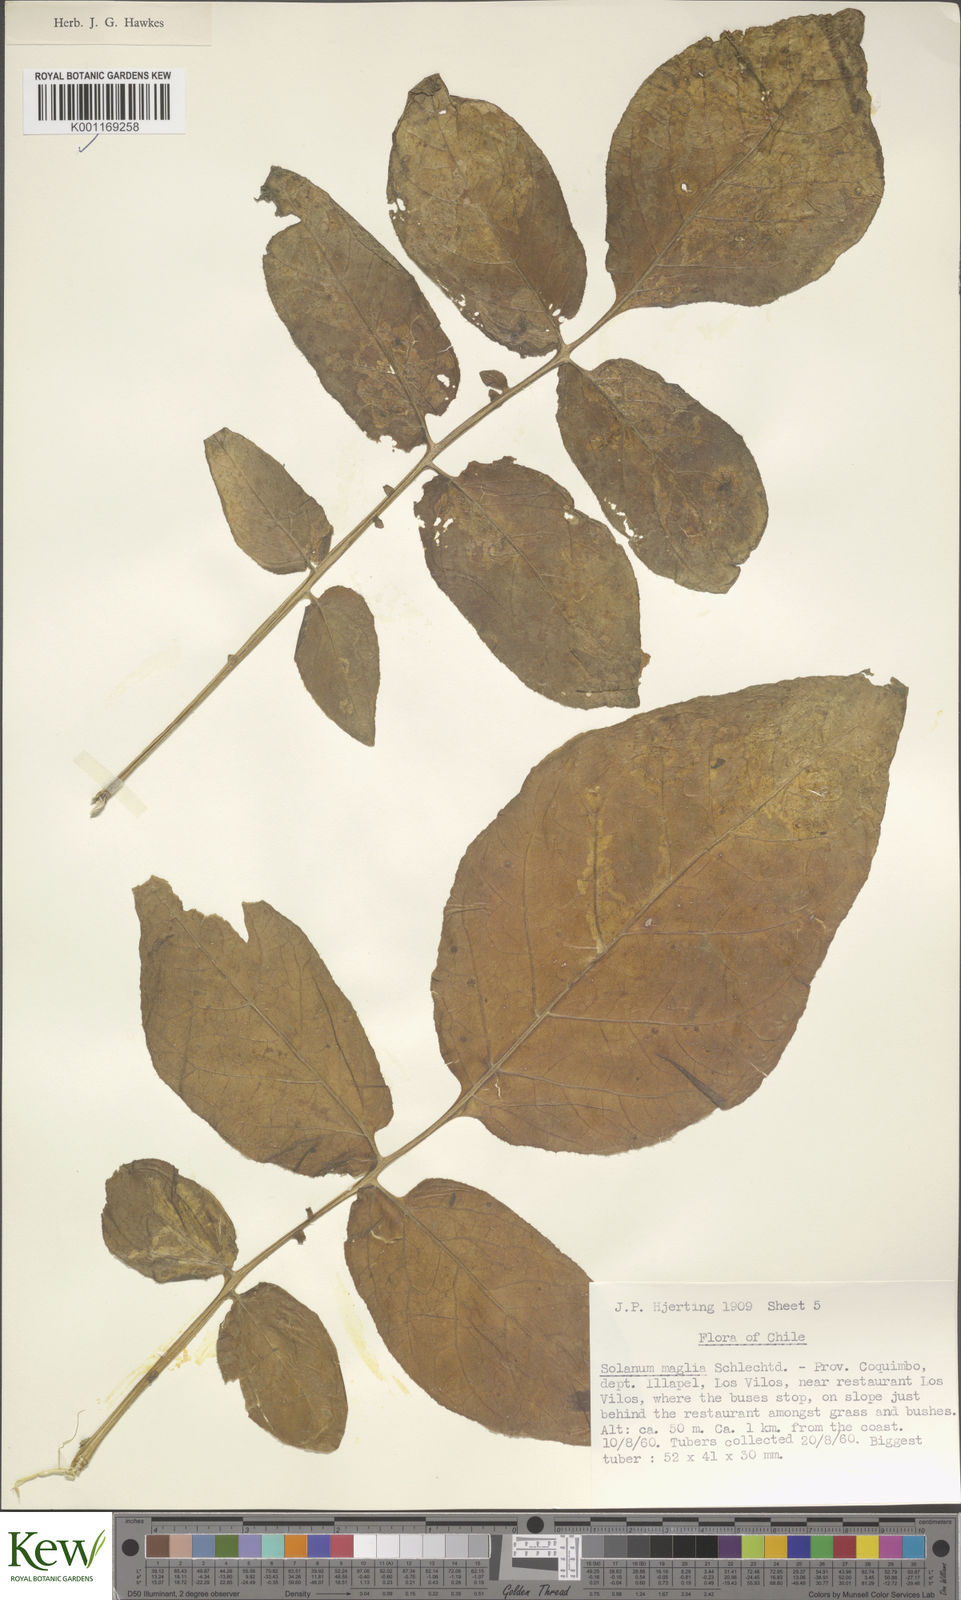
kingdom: Plantae
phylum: Tracheophyta
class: Magnoliopsida
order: Solanales
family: Solanaceae
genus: Solanum
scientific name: Solanum maglia
